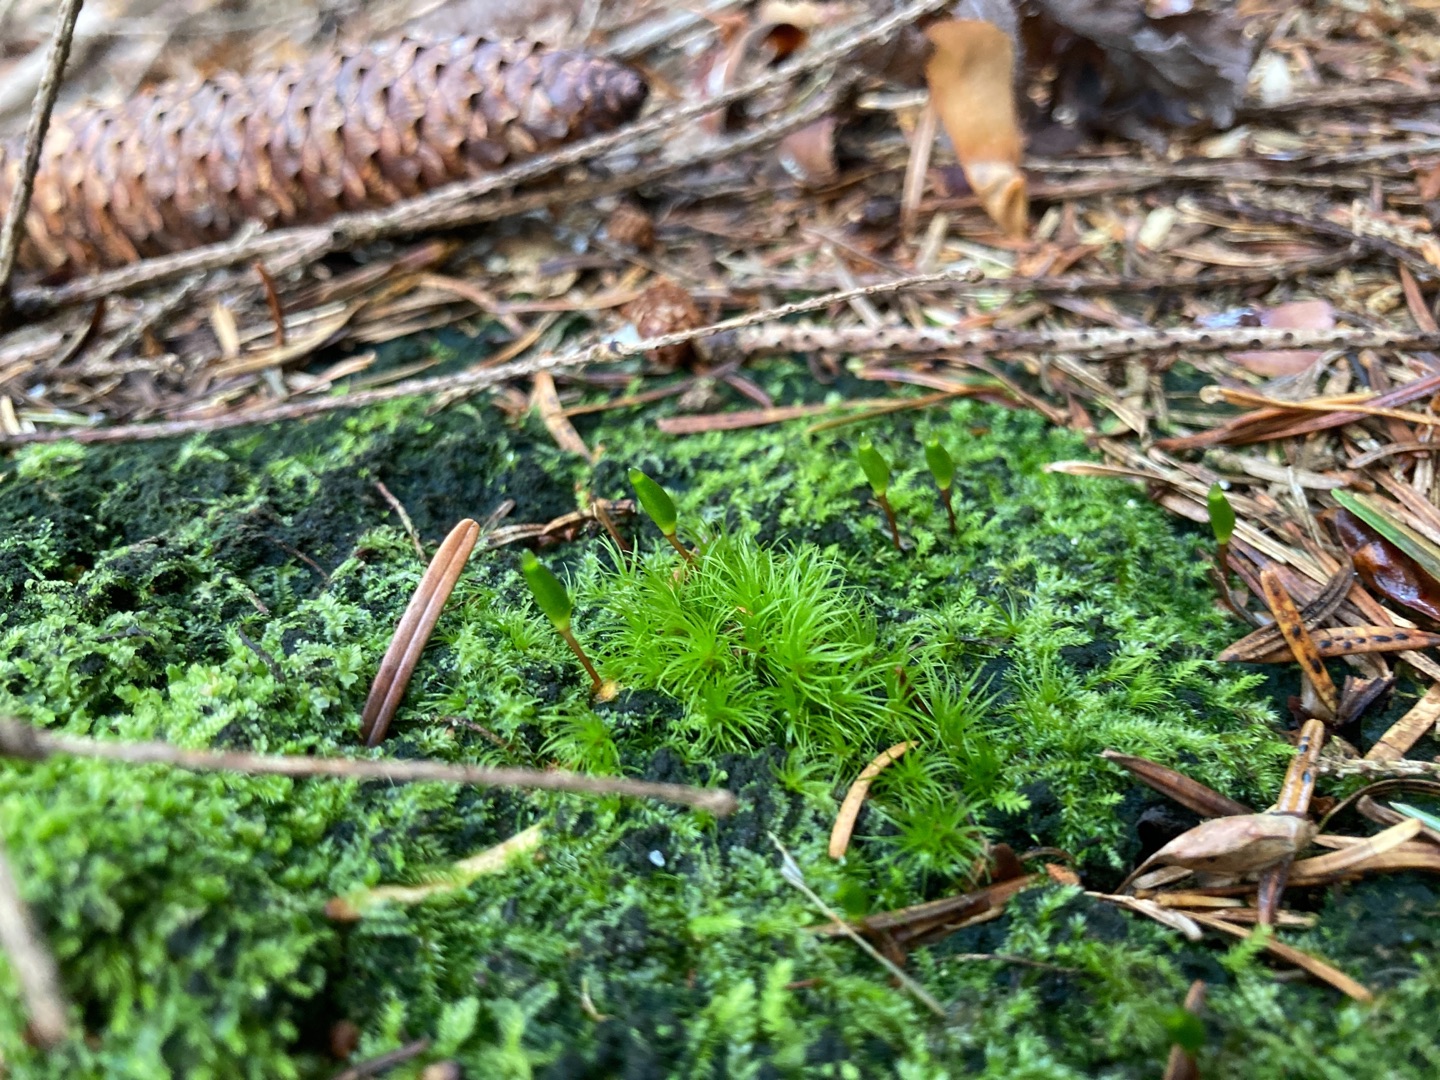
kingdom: Plantae
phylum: Bryophyta
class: Bryopsida
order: Buxbaumiales
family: Buxbaumiaceae
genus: Buxbaumia
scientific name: Buxbaumia viridis
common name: Grøn buxbaumia
